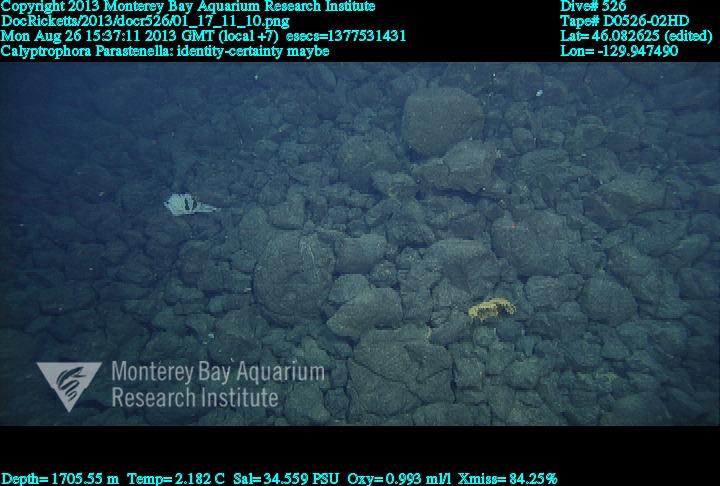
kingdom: Animalia
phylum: Cnidaria
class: Anthozoa
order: Scleralcyonacea
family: Primnoidae
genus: Parastenella
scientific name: Parastenella
